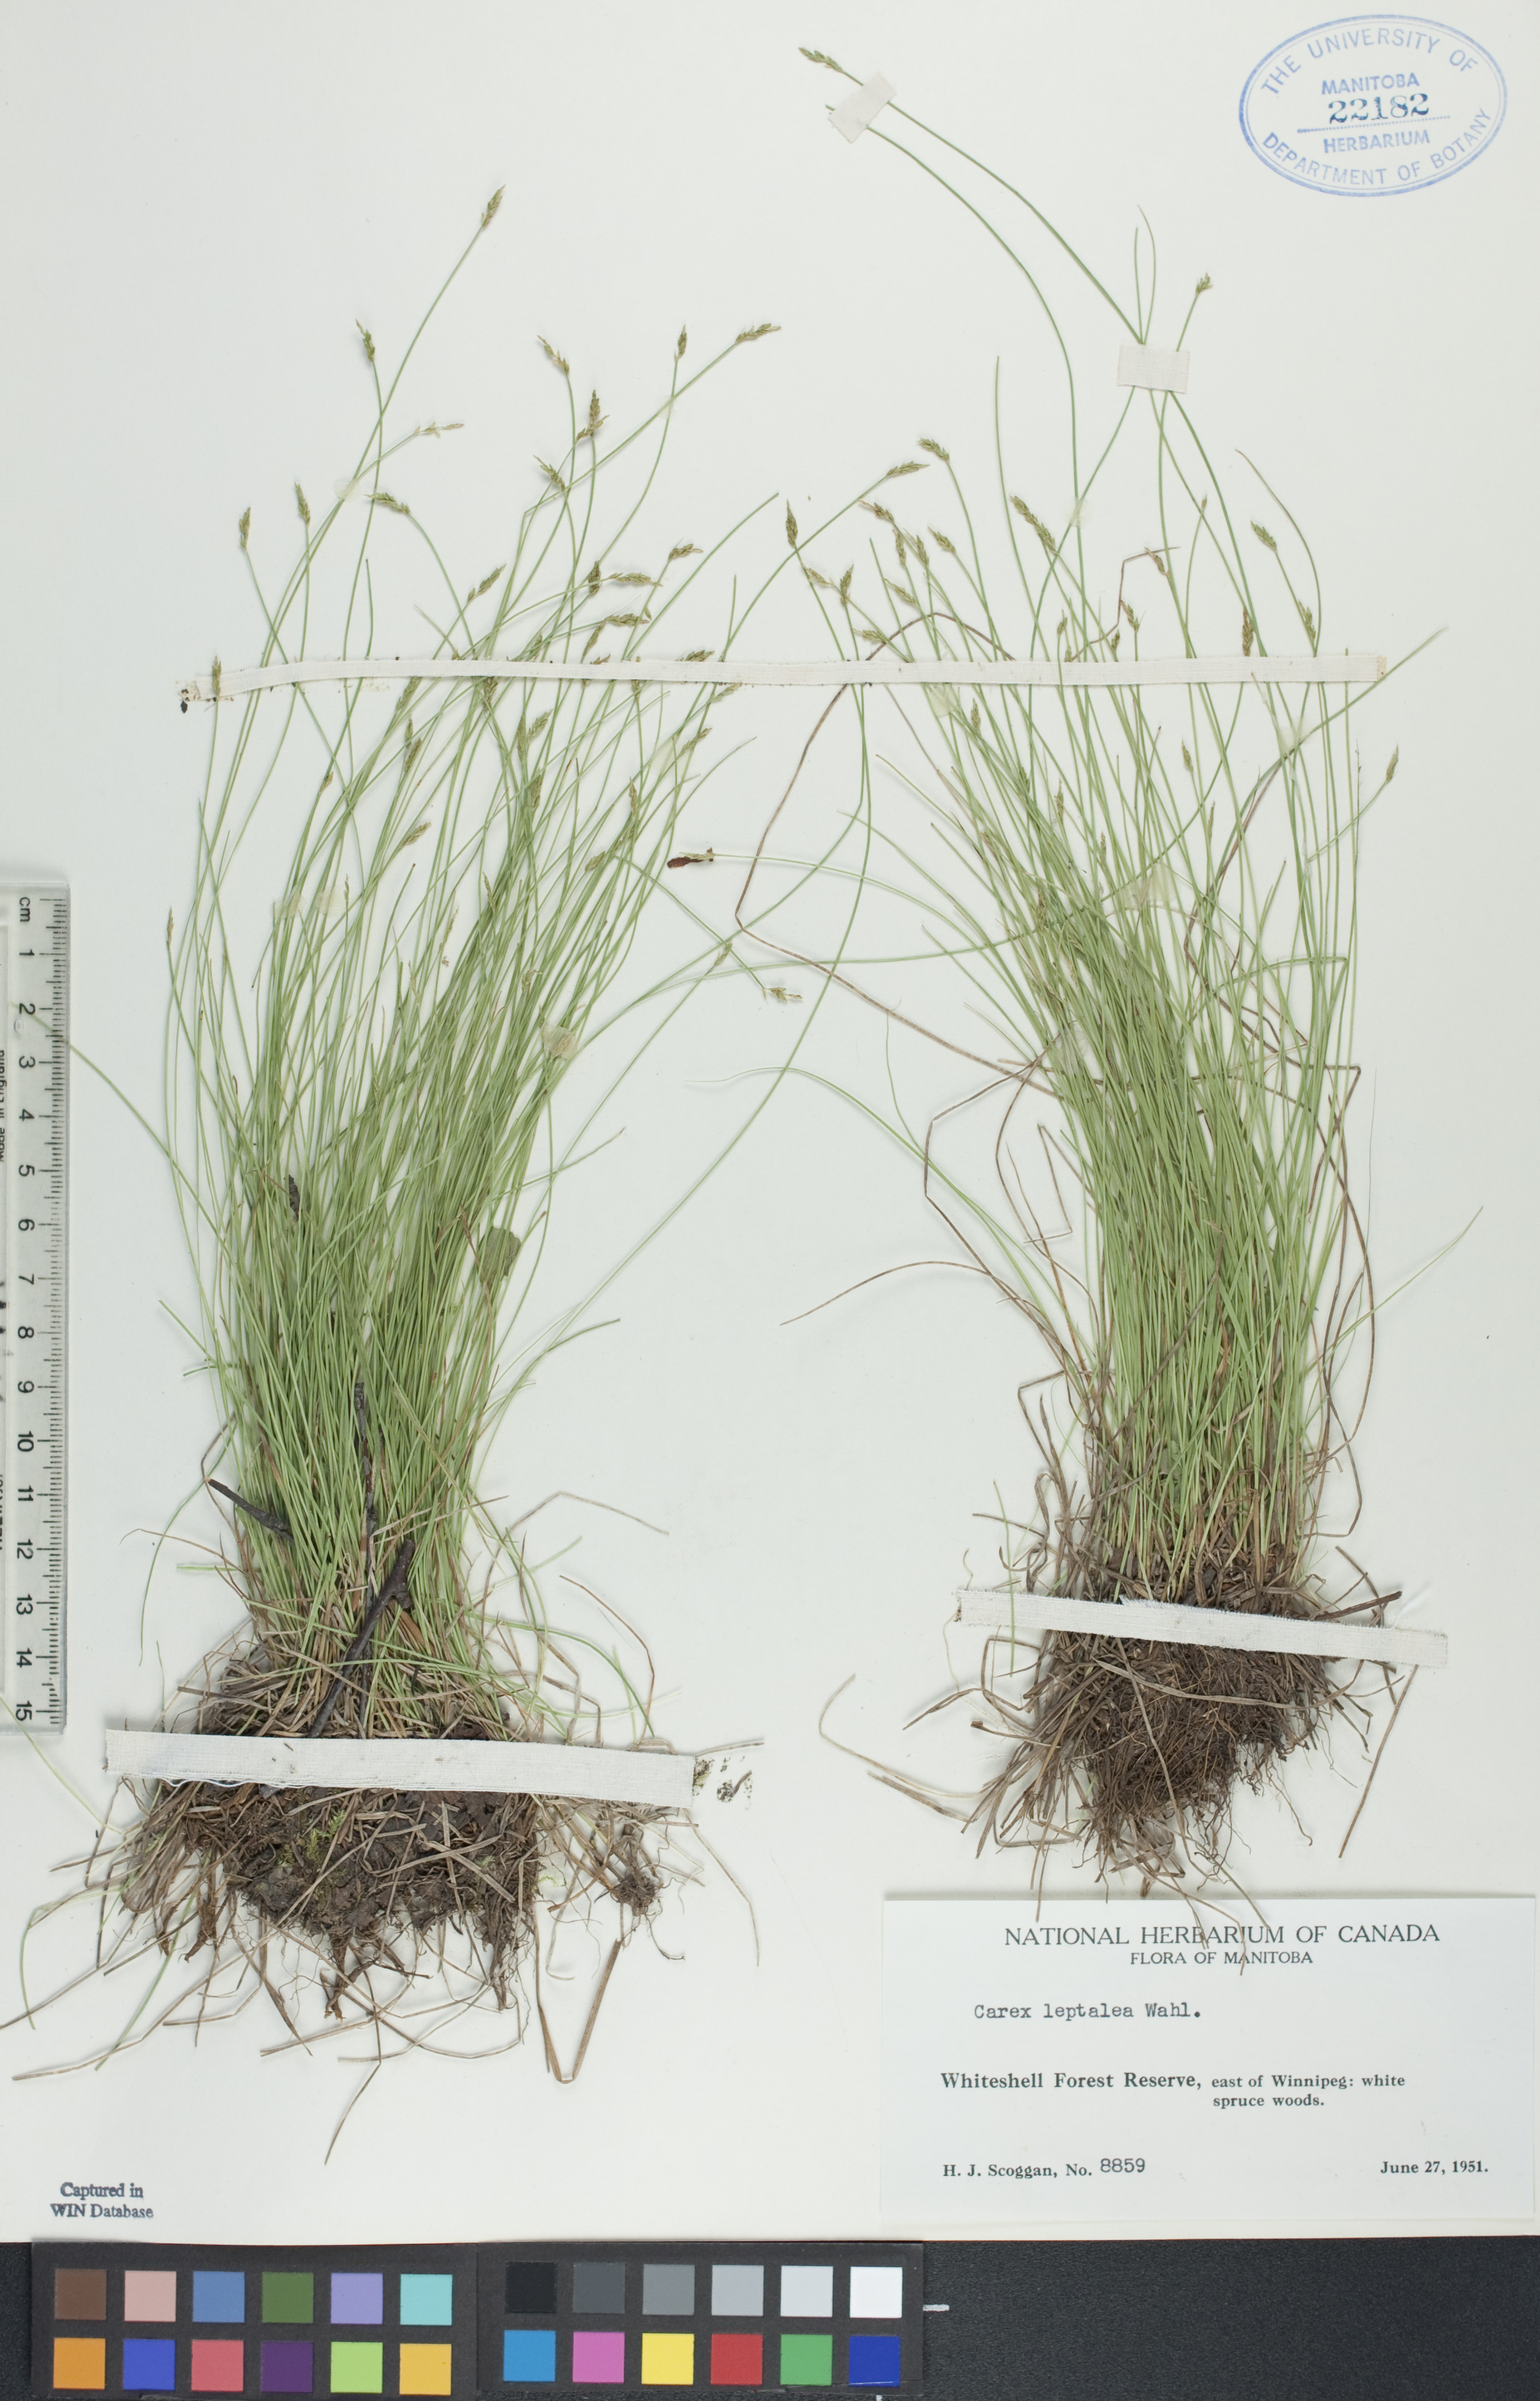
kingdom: Plantae
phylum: Tracheophyta
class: Liliopsida
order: Poales
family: Cyperaceae
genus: Carex
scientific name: Carex leptalea
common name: Bristly-stalked sedge
